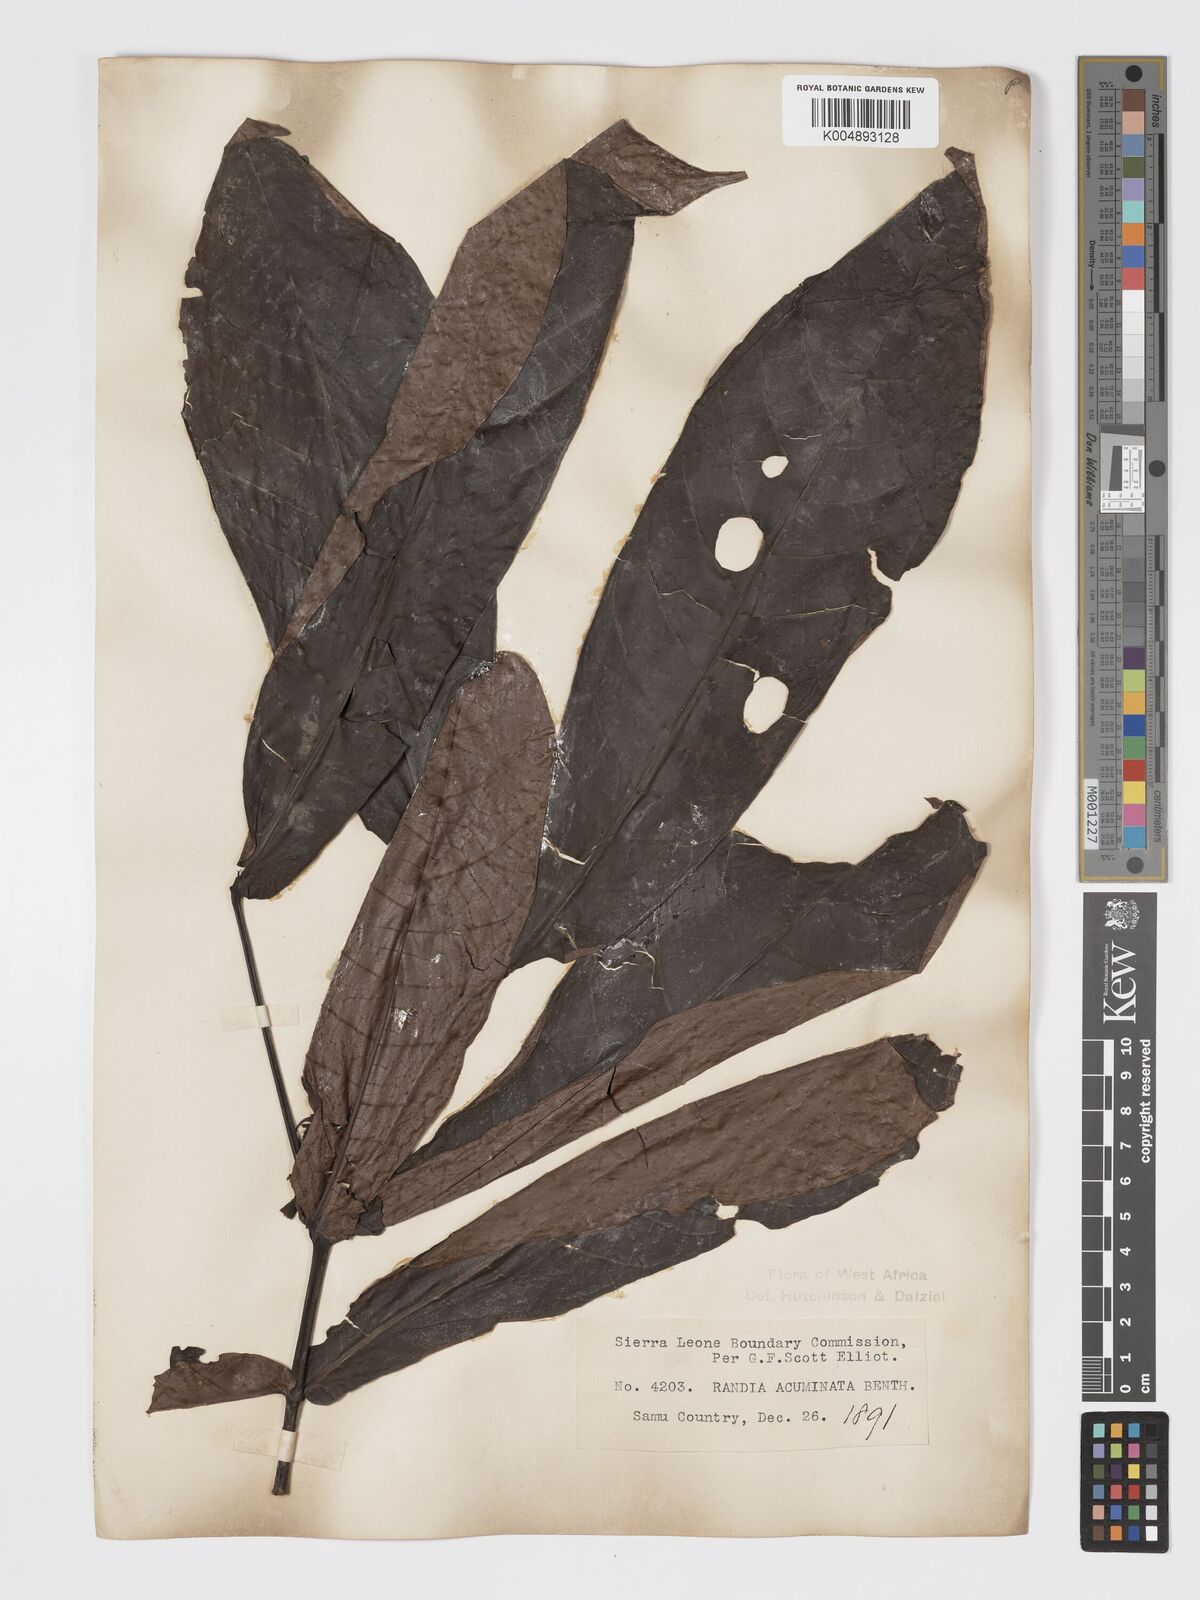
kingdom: Plantae
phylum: Tracheophyta
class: Magnoliopsida
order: Gentianales
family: Rubiaceae
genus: Massularia
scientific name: Massularia acuminata
